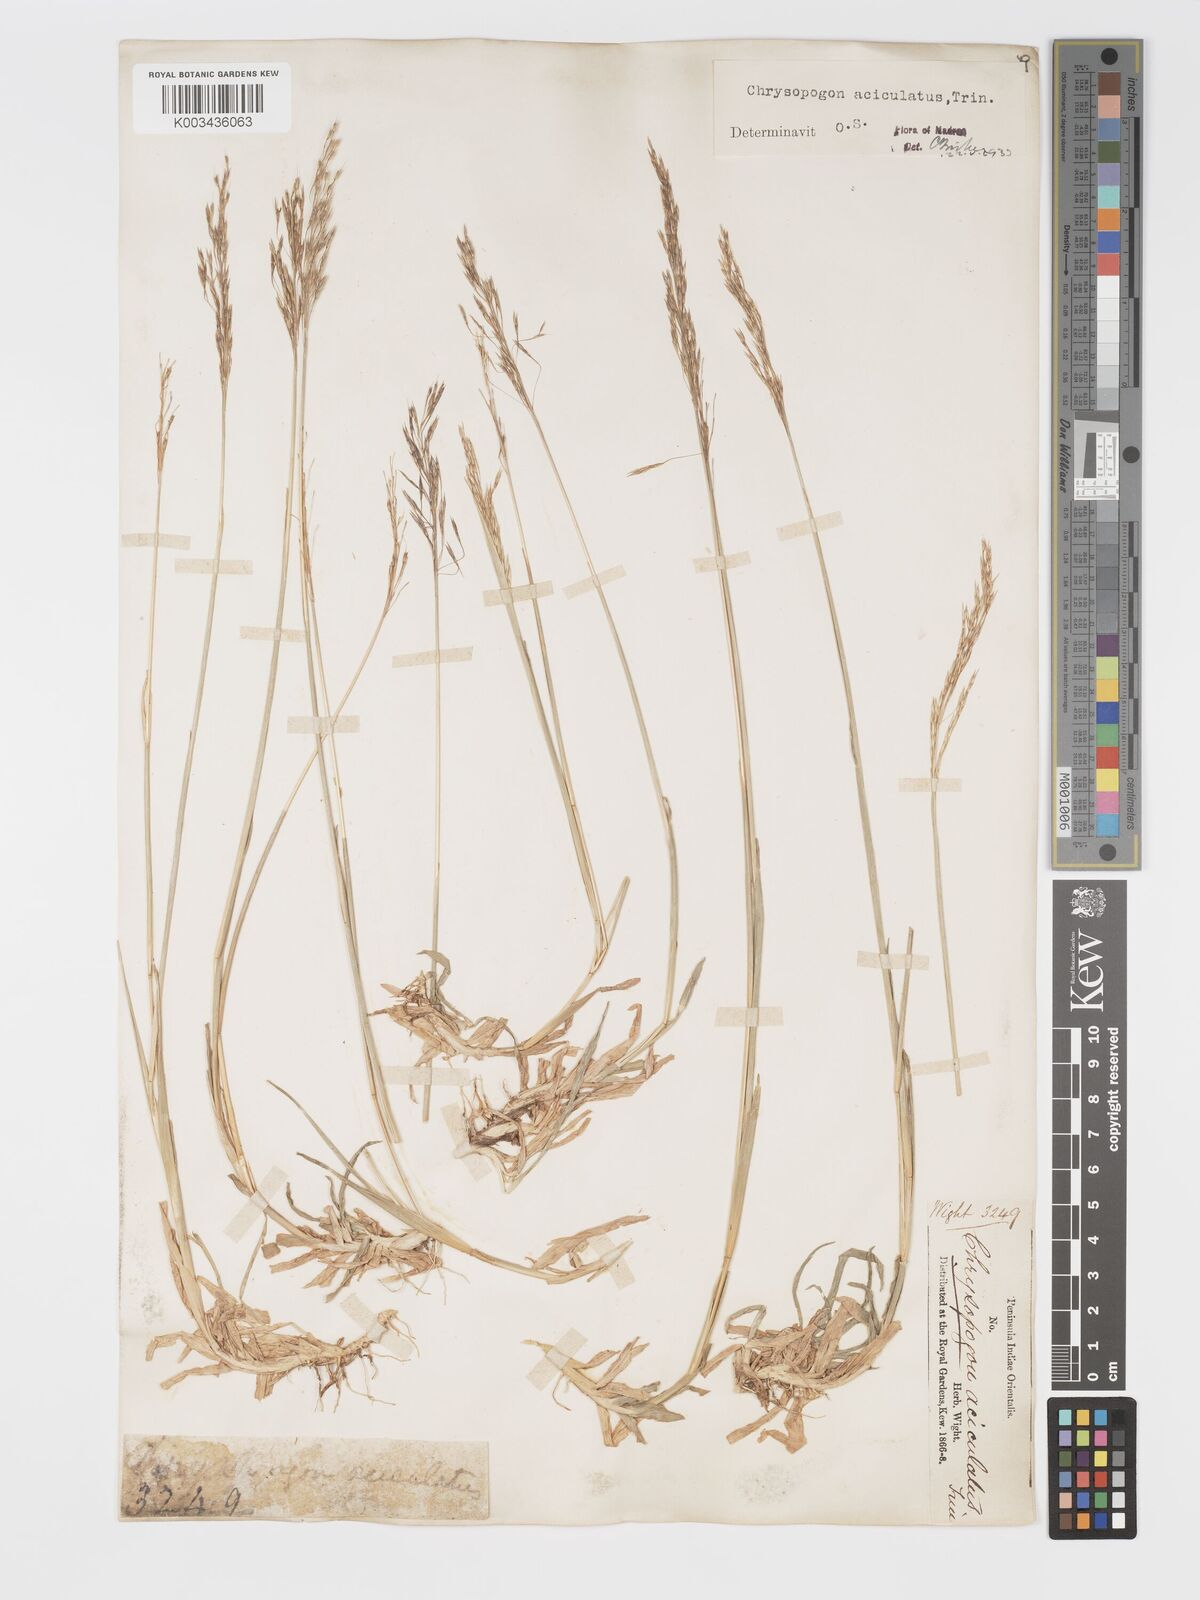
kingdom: Plantae
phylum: Tracheophyta
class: Liliopsida
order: Poales
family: Poaceae
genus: Chrysopogon
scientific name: Chrysopogon aciculatus
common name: Pilipiliula
